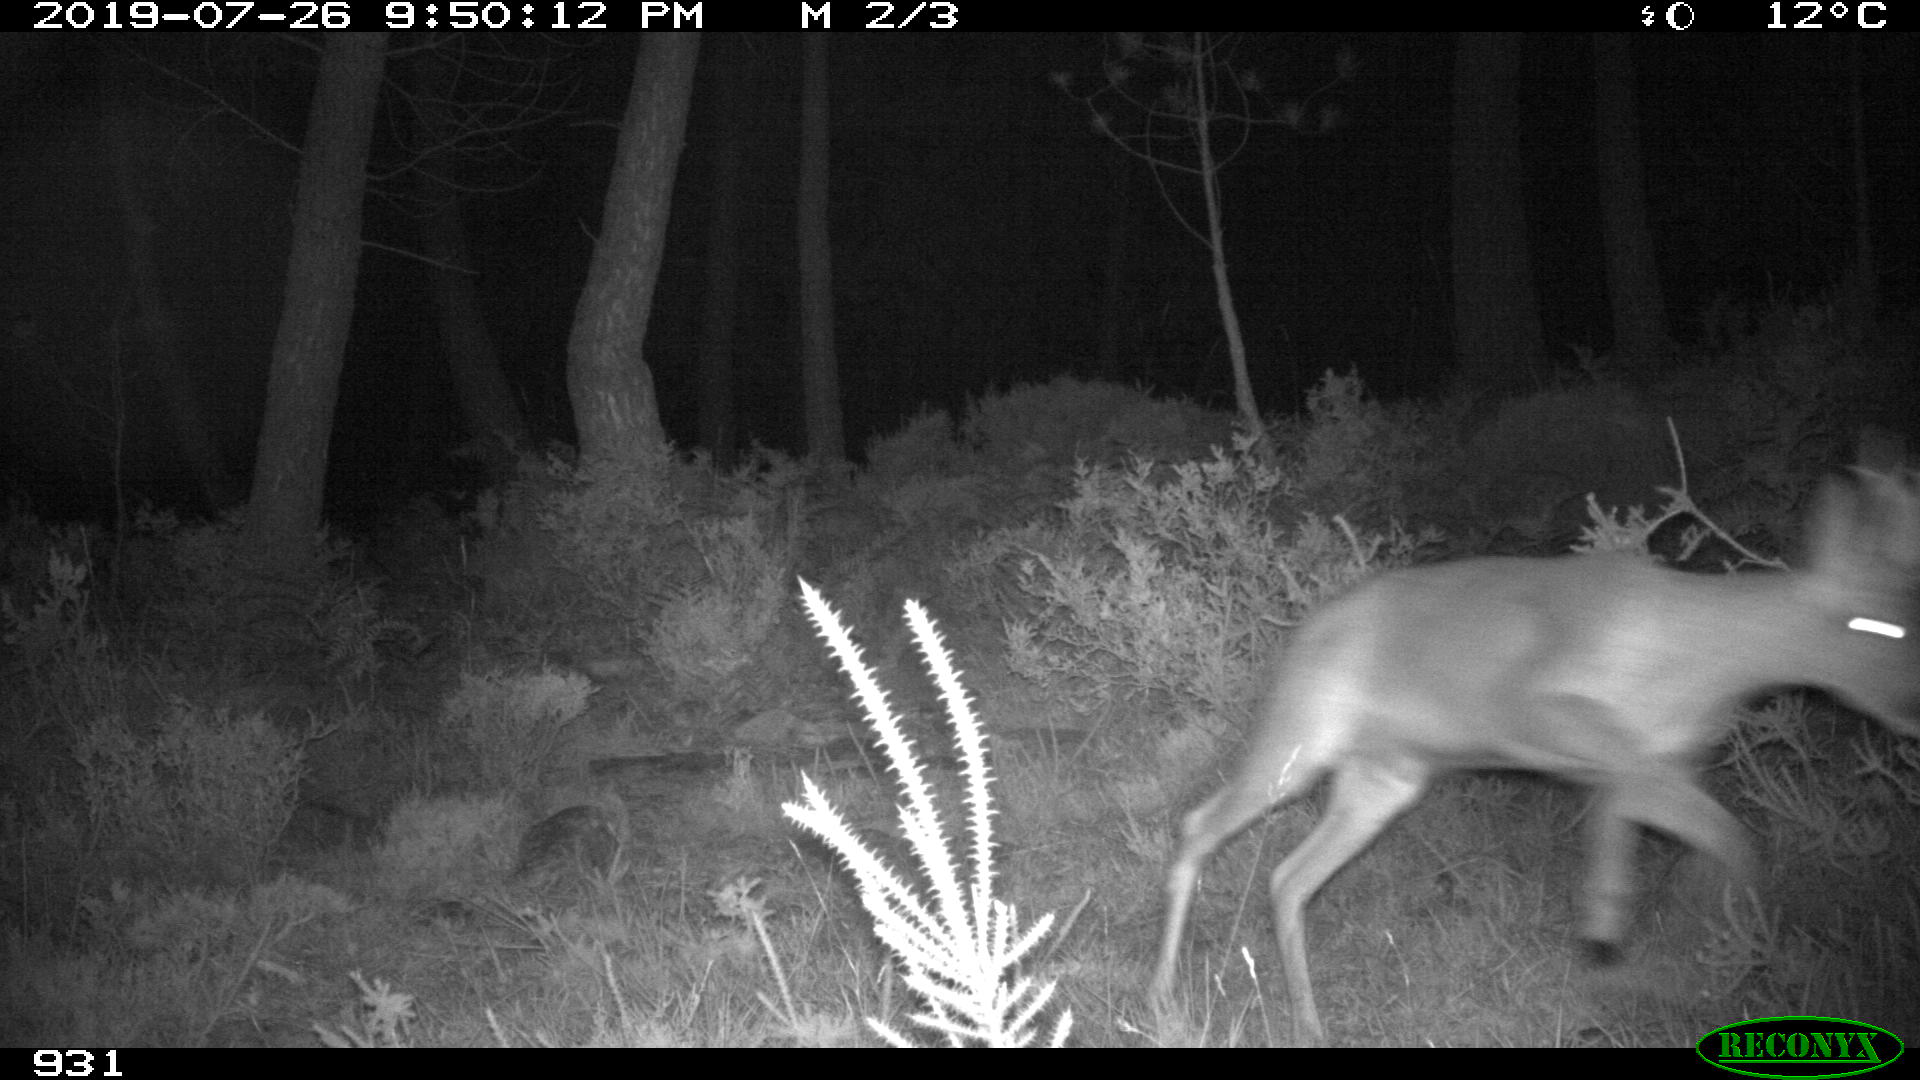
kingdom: Animalia
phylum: Chordata
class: Mammalia
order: Artiodactyla
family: Cervidae
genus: Capreolus
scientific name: Capreolus capreolus
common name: Western roe deer
